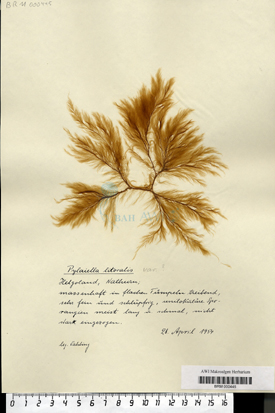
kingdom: Chromista
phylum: Ochrophyta
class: Phaeophyceae
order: Ectocarpales
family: Acinetosporaceae
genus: Pylaiella
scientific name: Pylaiella littoralis
